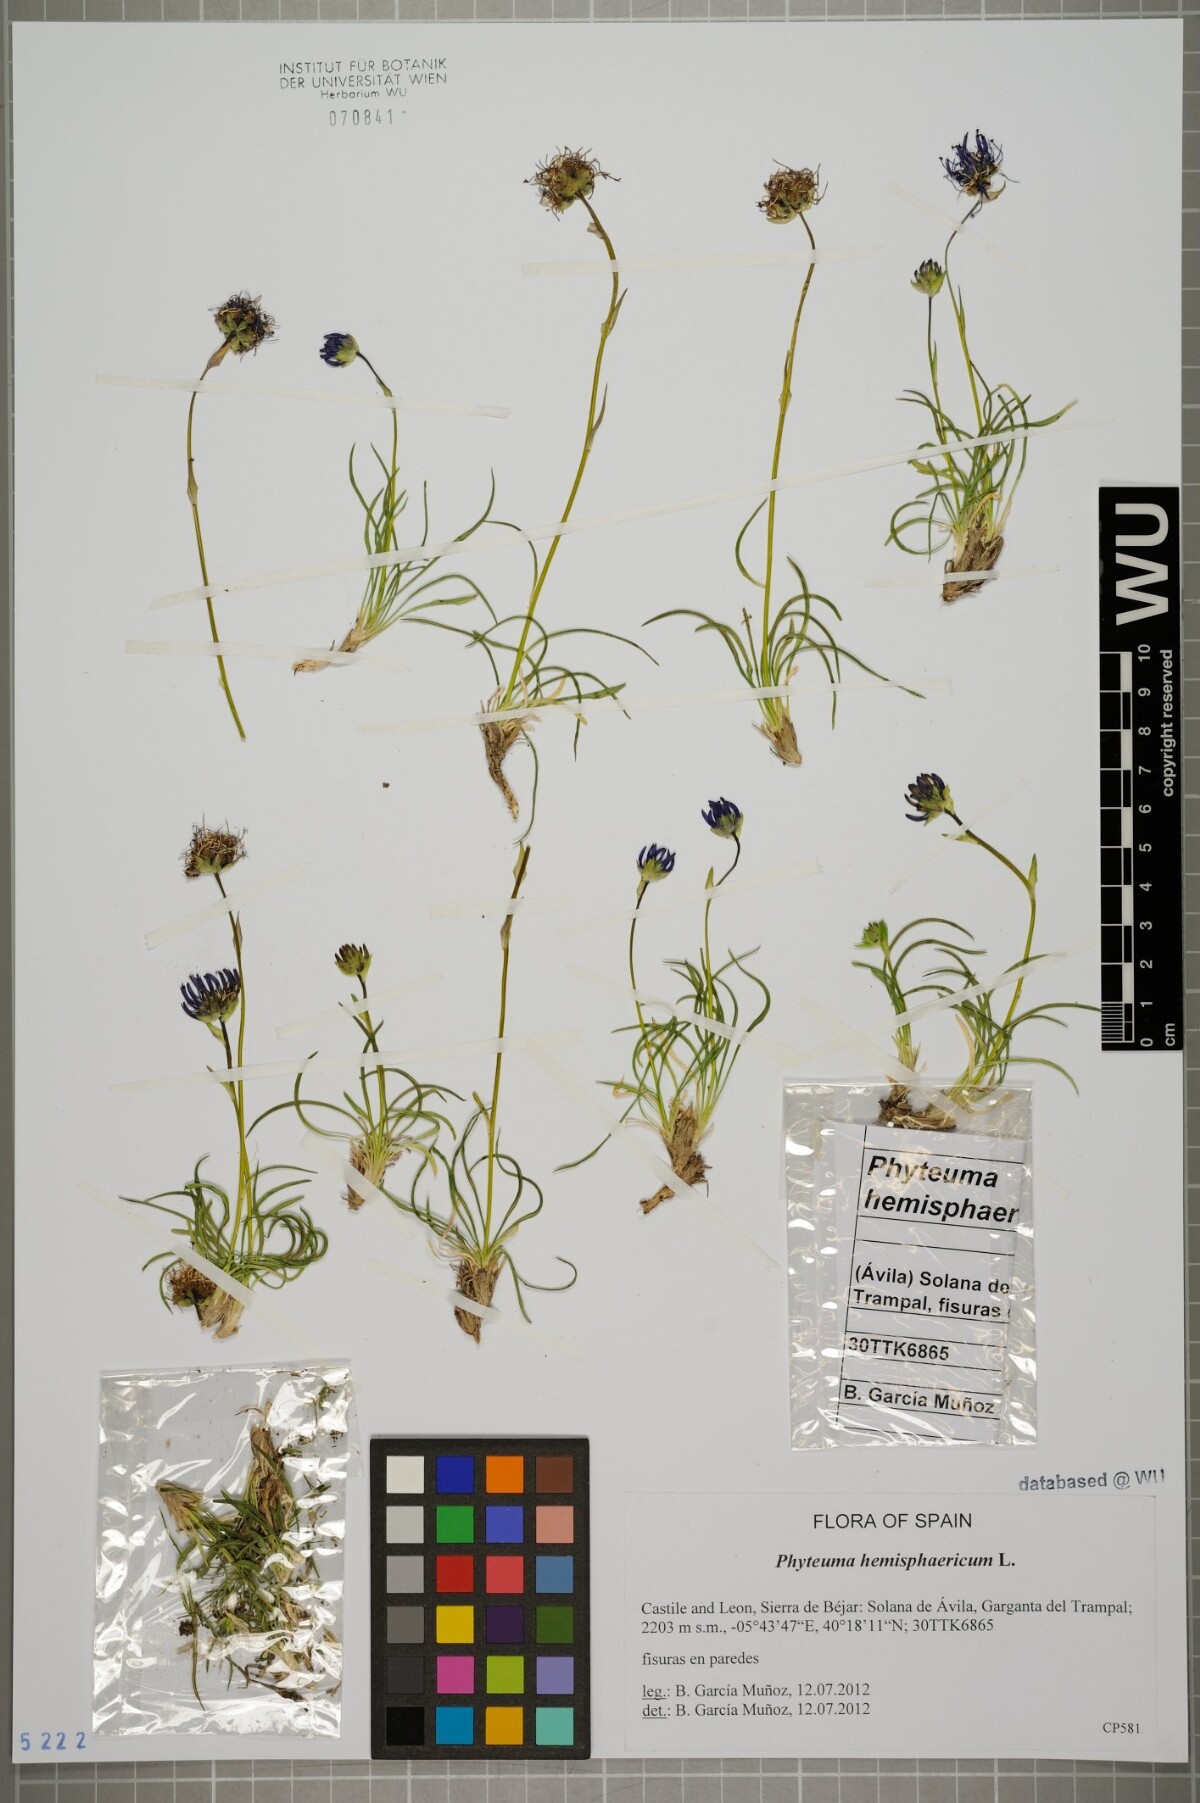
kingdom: Plantae
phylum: Tracheophyta
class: Magnoliopsida
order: Asterales
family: Campanulaceae
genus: Phyteuma
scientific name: Phyteuma hemisphaericum
